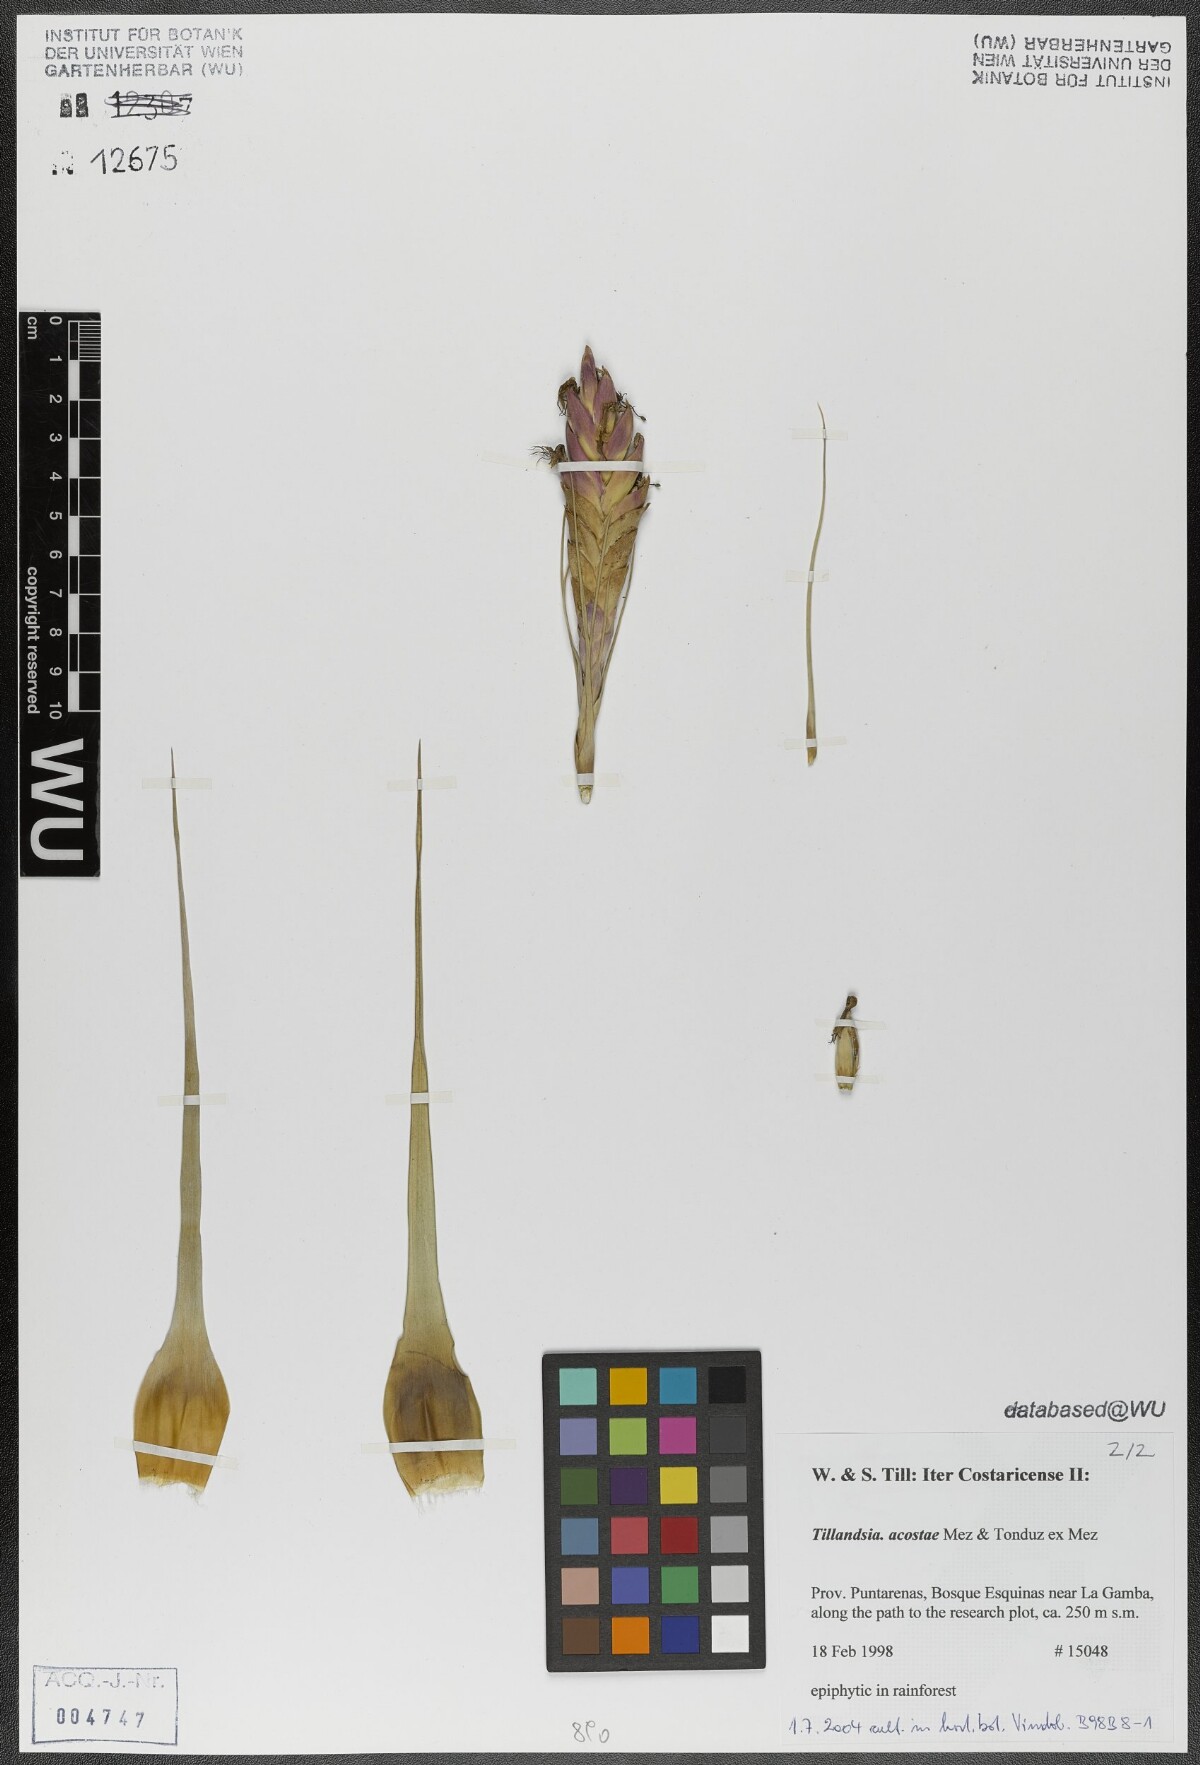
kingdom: Plantae
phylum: Tracheophyta
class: Liliopsida
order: Poales
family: Bromeliaceae
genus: Tillandsia
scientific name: Tillandsia rhomboidea
